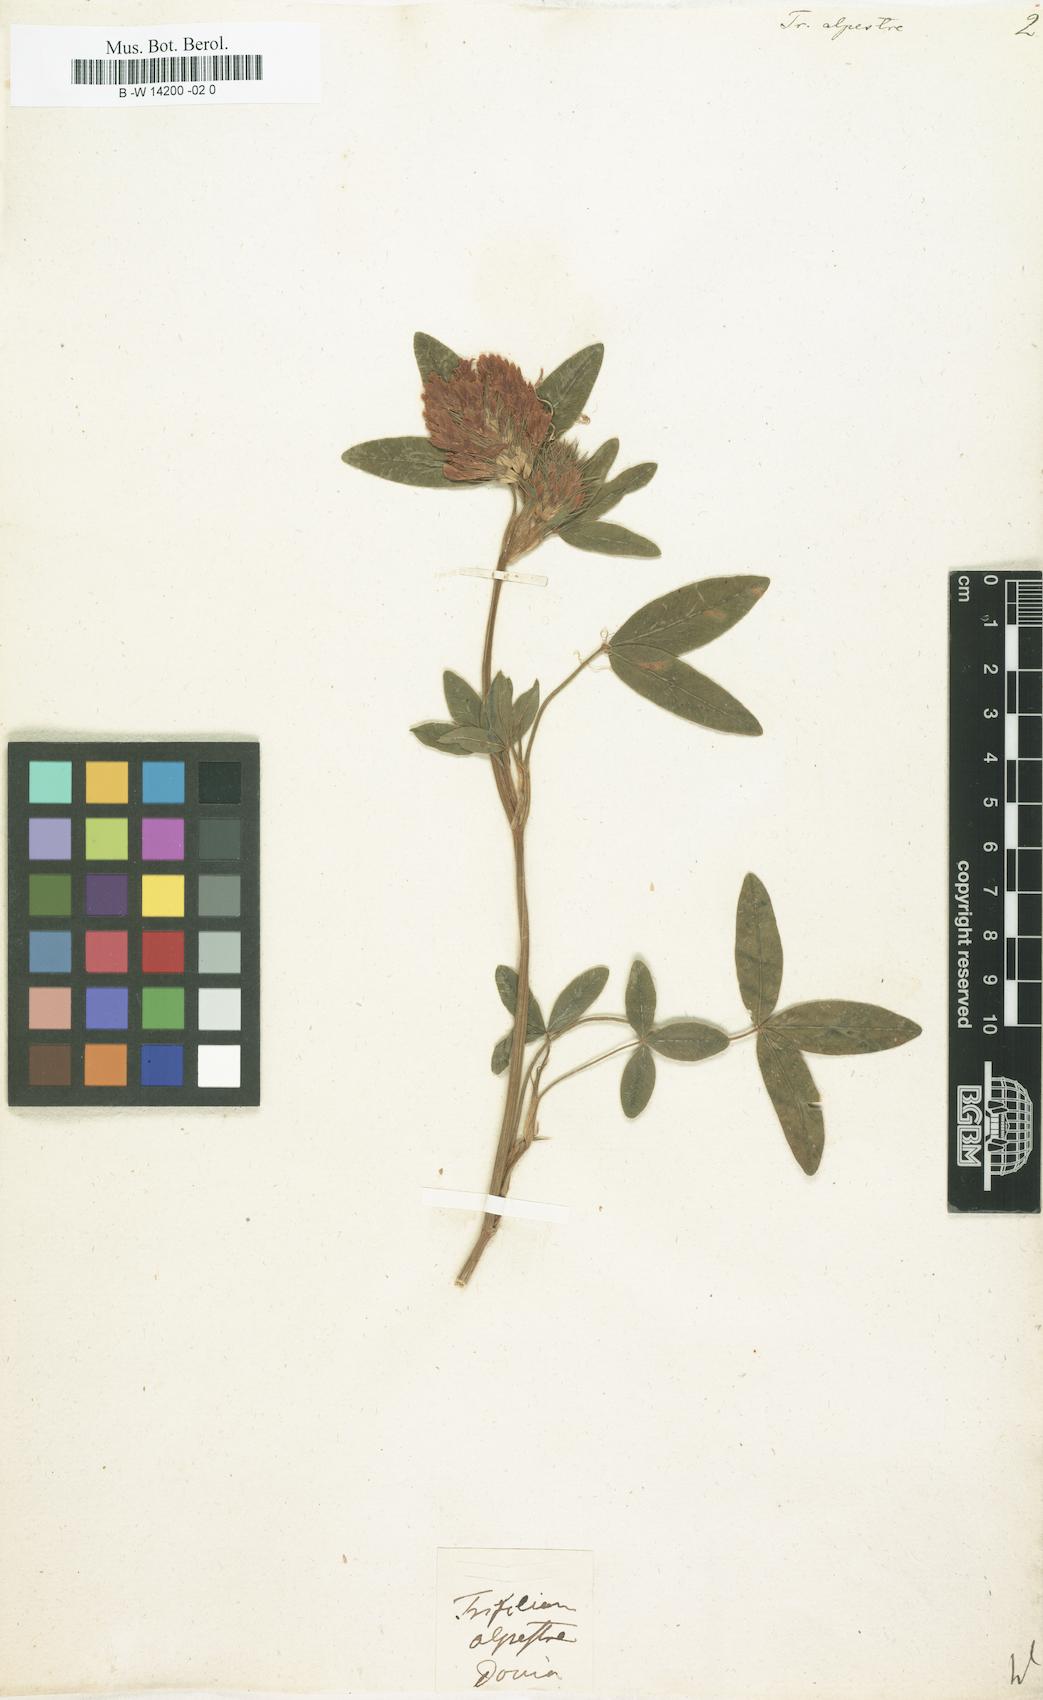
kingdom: Plantae
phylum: Tracheophyta
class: Magnoliopsida
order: Fabales
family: Fabaceae
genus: Trifolium
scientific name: Trifolium alpestre
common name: Owl-head clover
